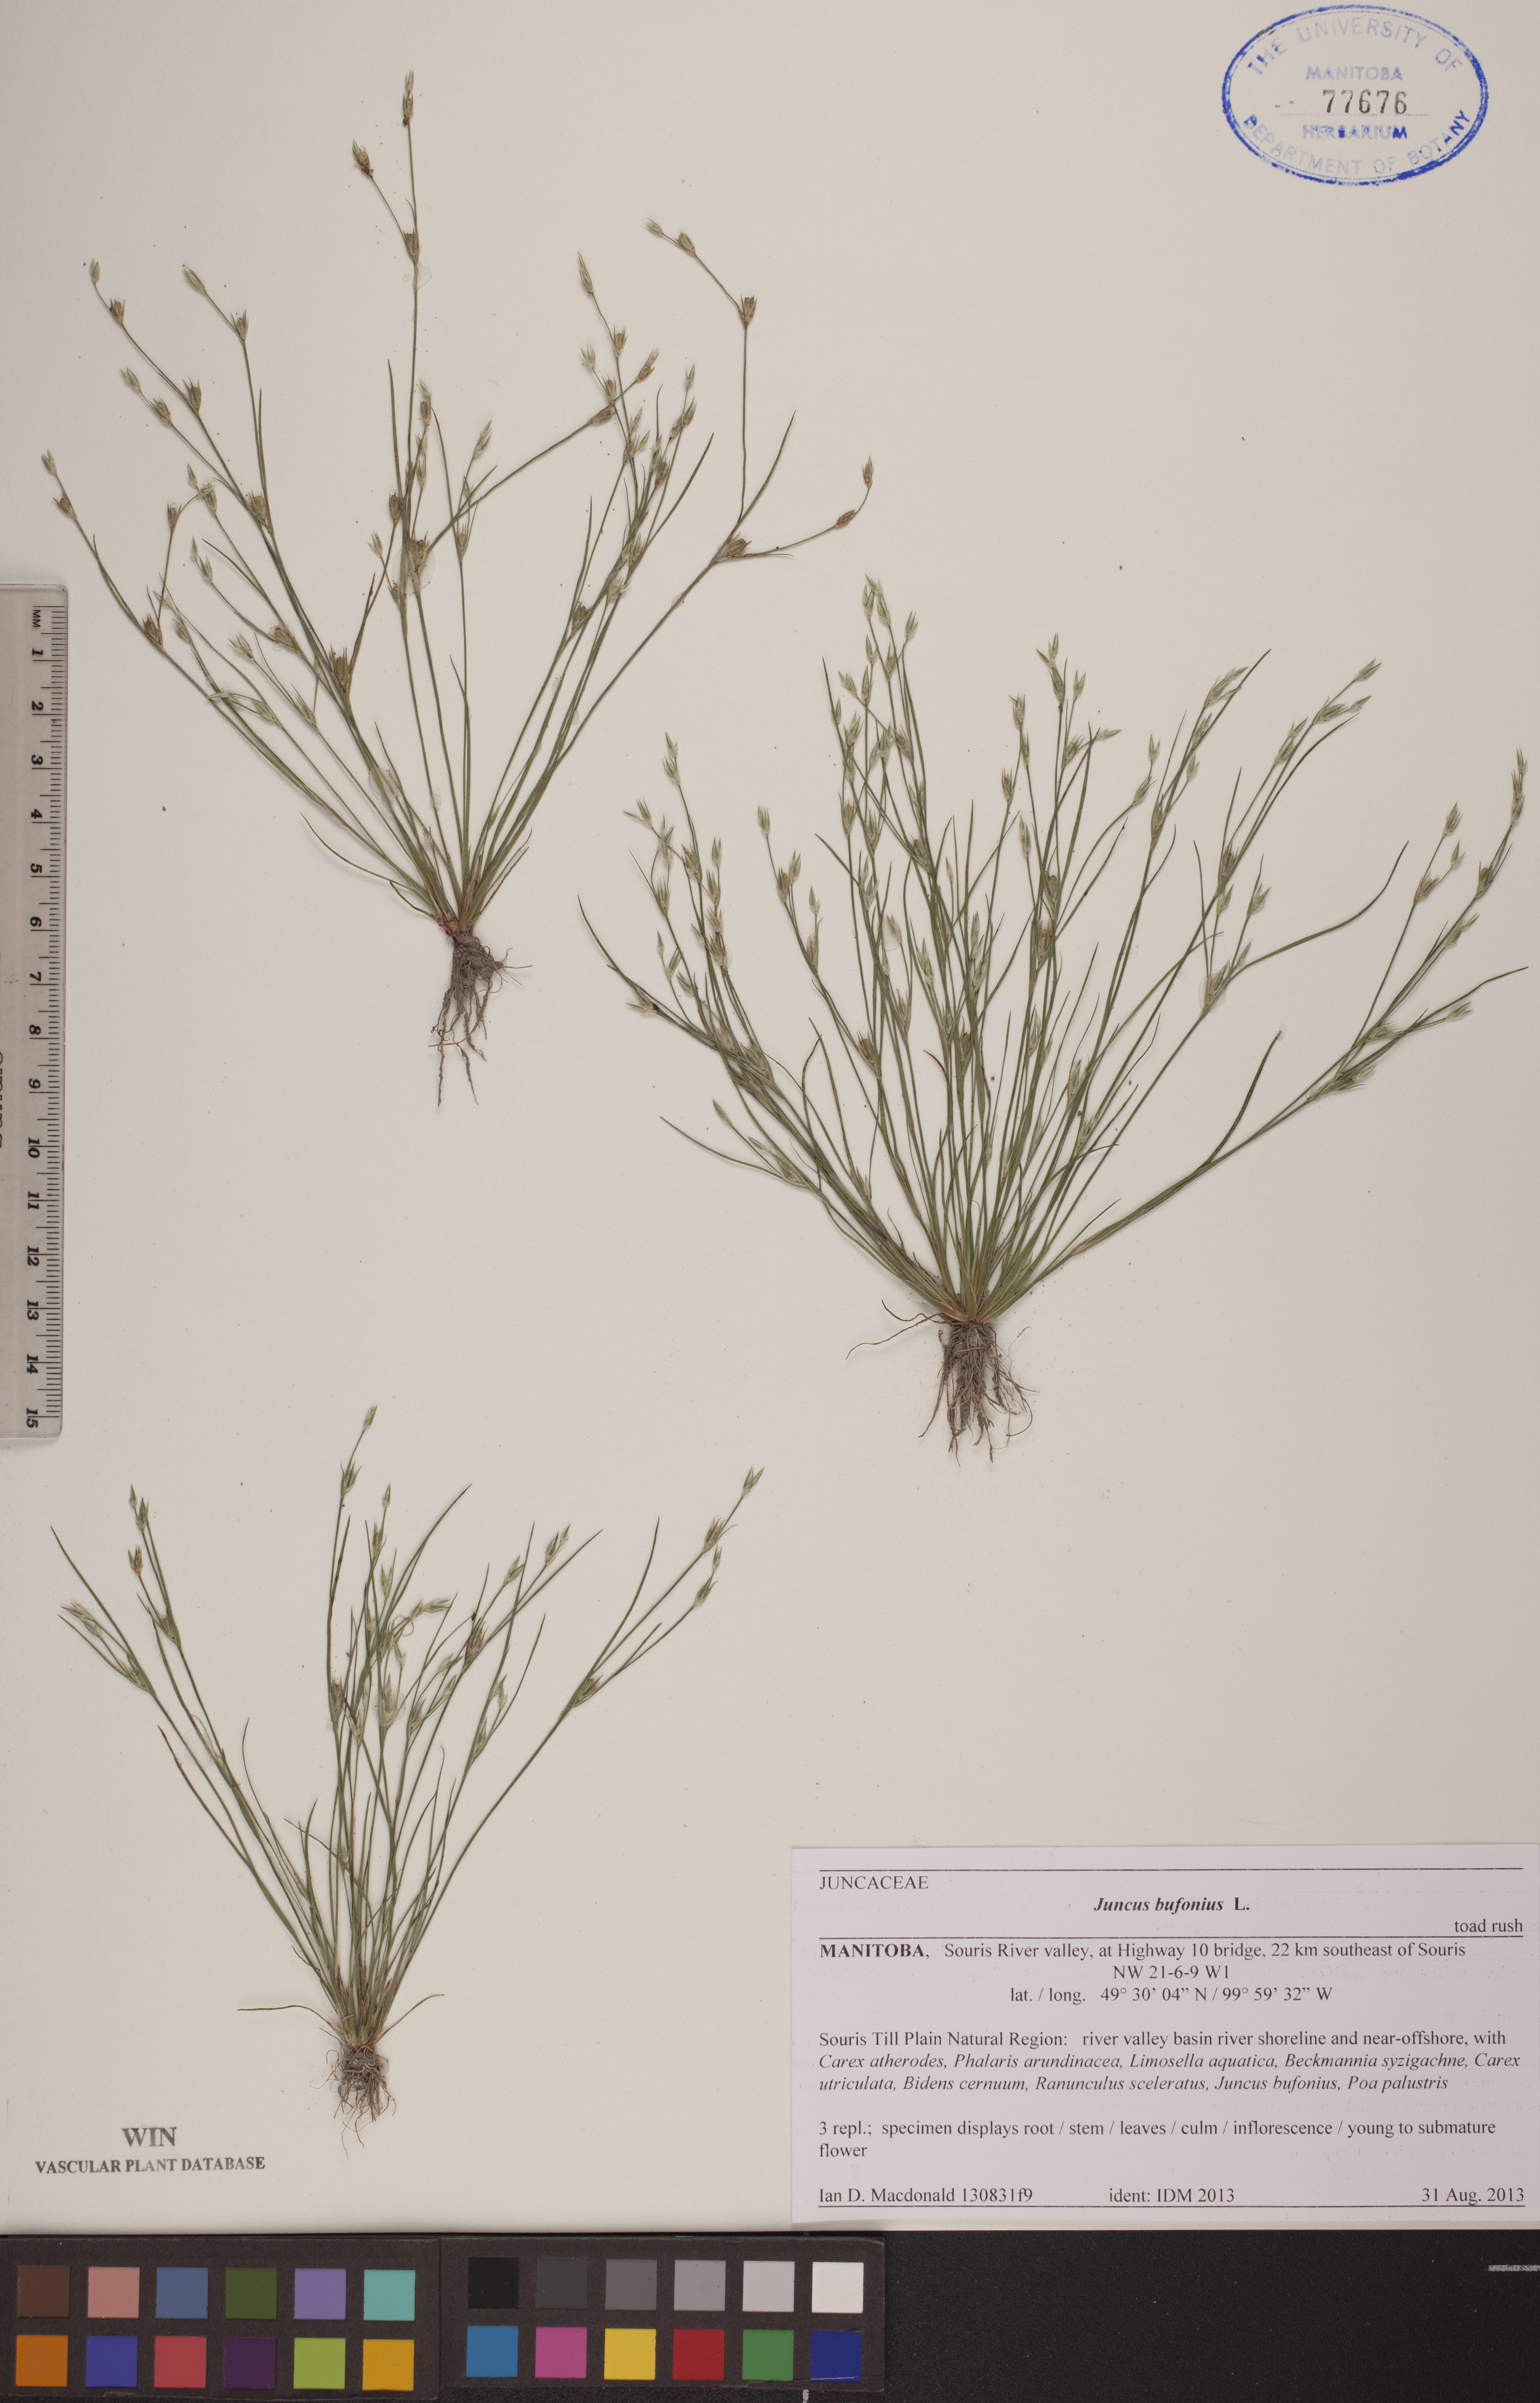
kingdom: Plantae
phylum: Tracheophyta
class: Liliopsida
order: Poales
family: Juncaceae
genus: Juncus
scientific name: Juncus bufonius
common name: Toad rush
